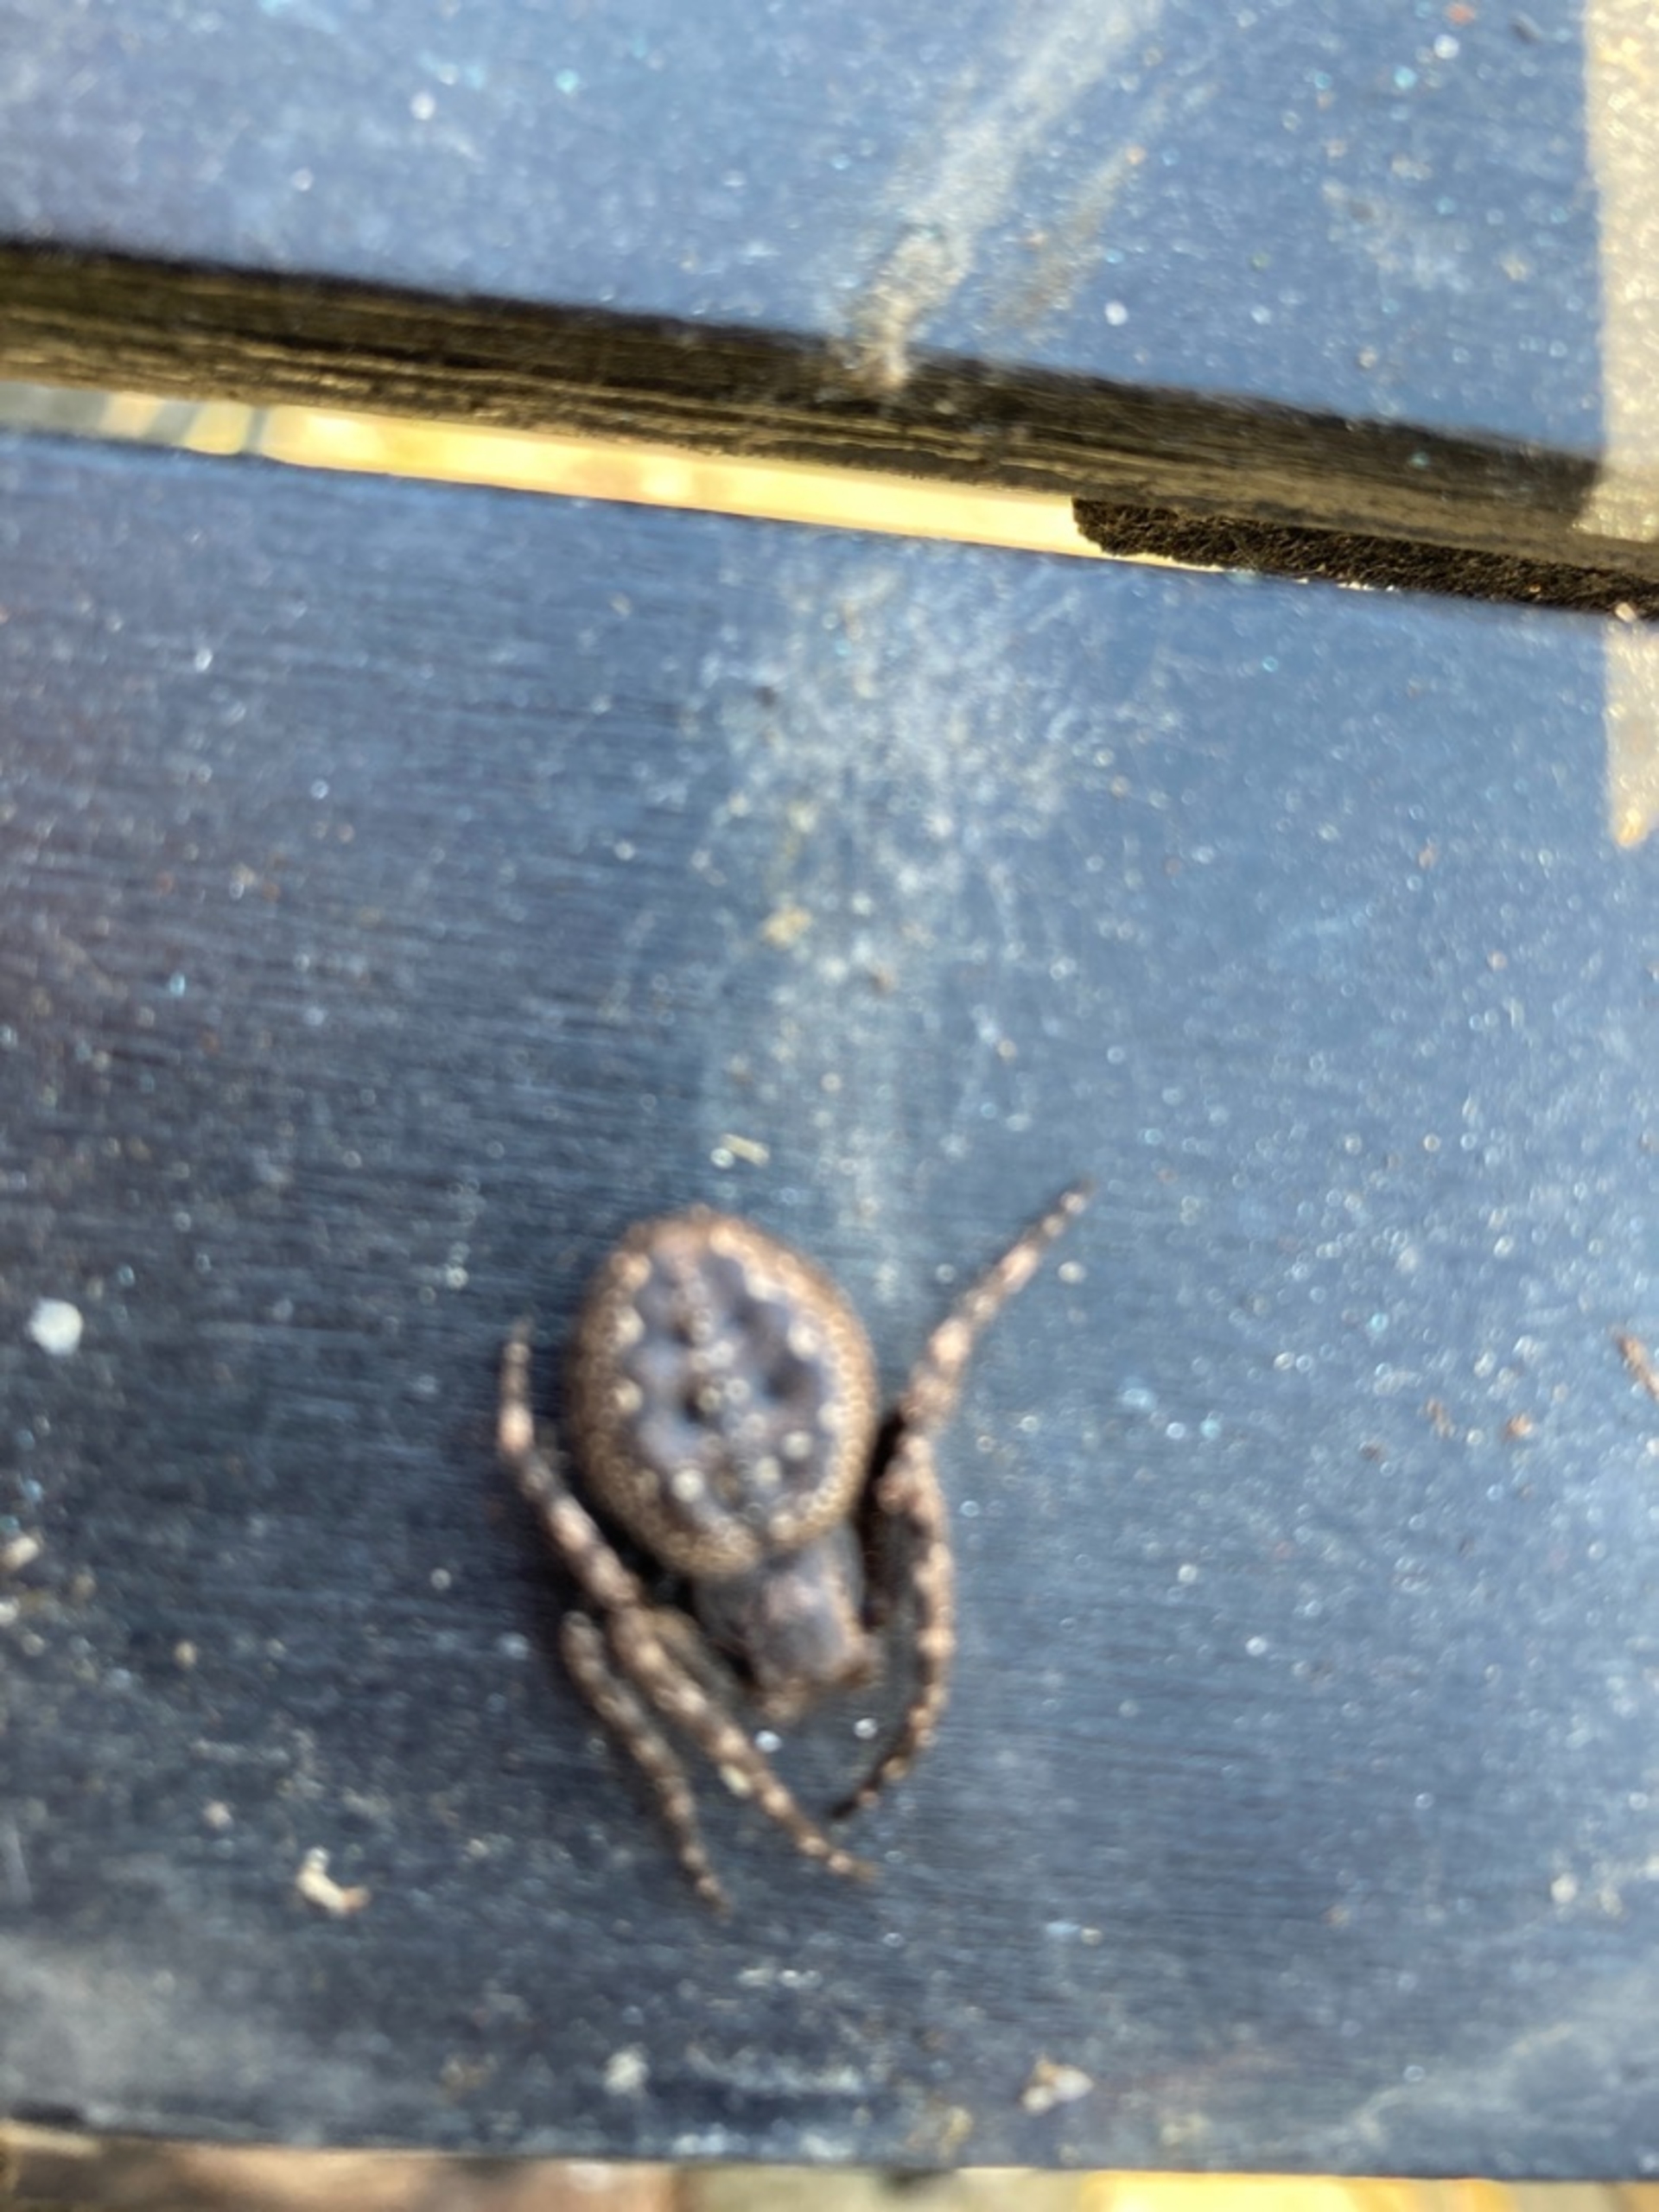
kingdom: Animalia
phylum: Arthropoda
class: Arachnida
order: Araneae
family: Araneidae
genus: Nuctenea
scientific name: Nuctenea umbratica
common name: Flad hjulspinder
